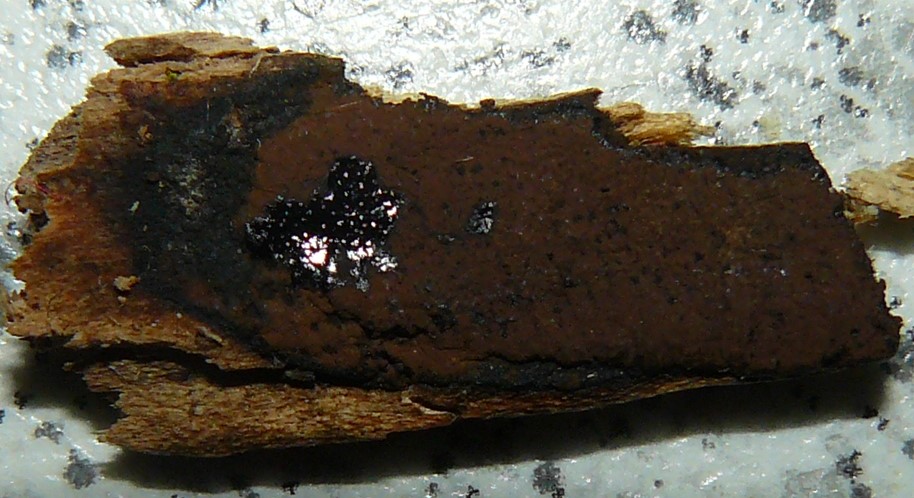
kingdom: Fungi
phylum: Ascomycota
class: Sordariomycetes
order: Xylariales
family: Hypoxylaceae
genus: Hypoxylon
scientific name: Hypoxylon petriniae
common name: nedsænket kulbær
